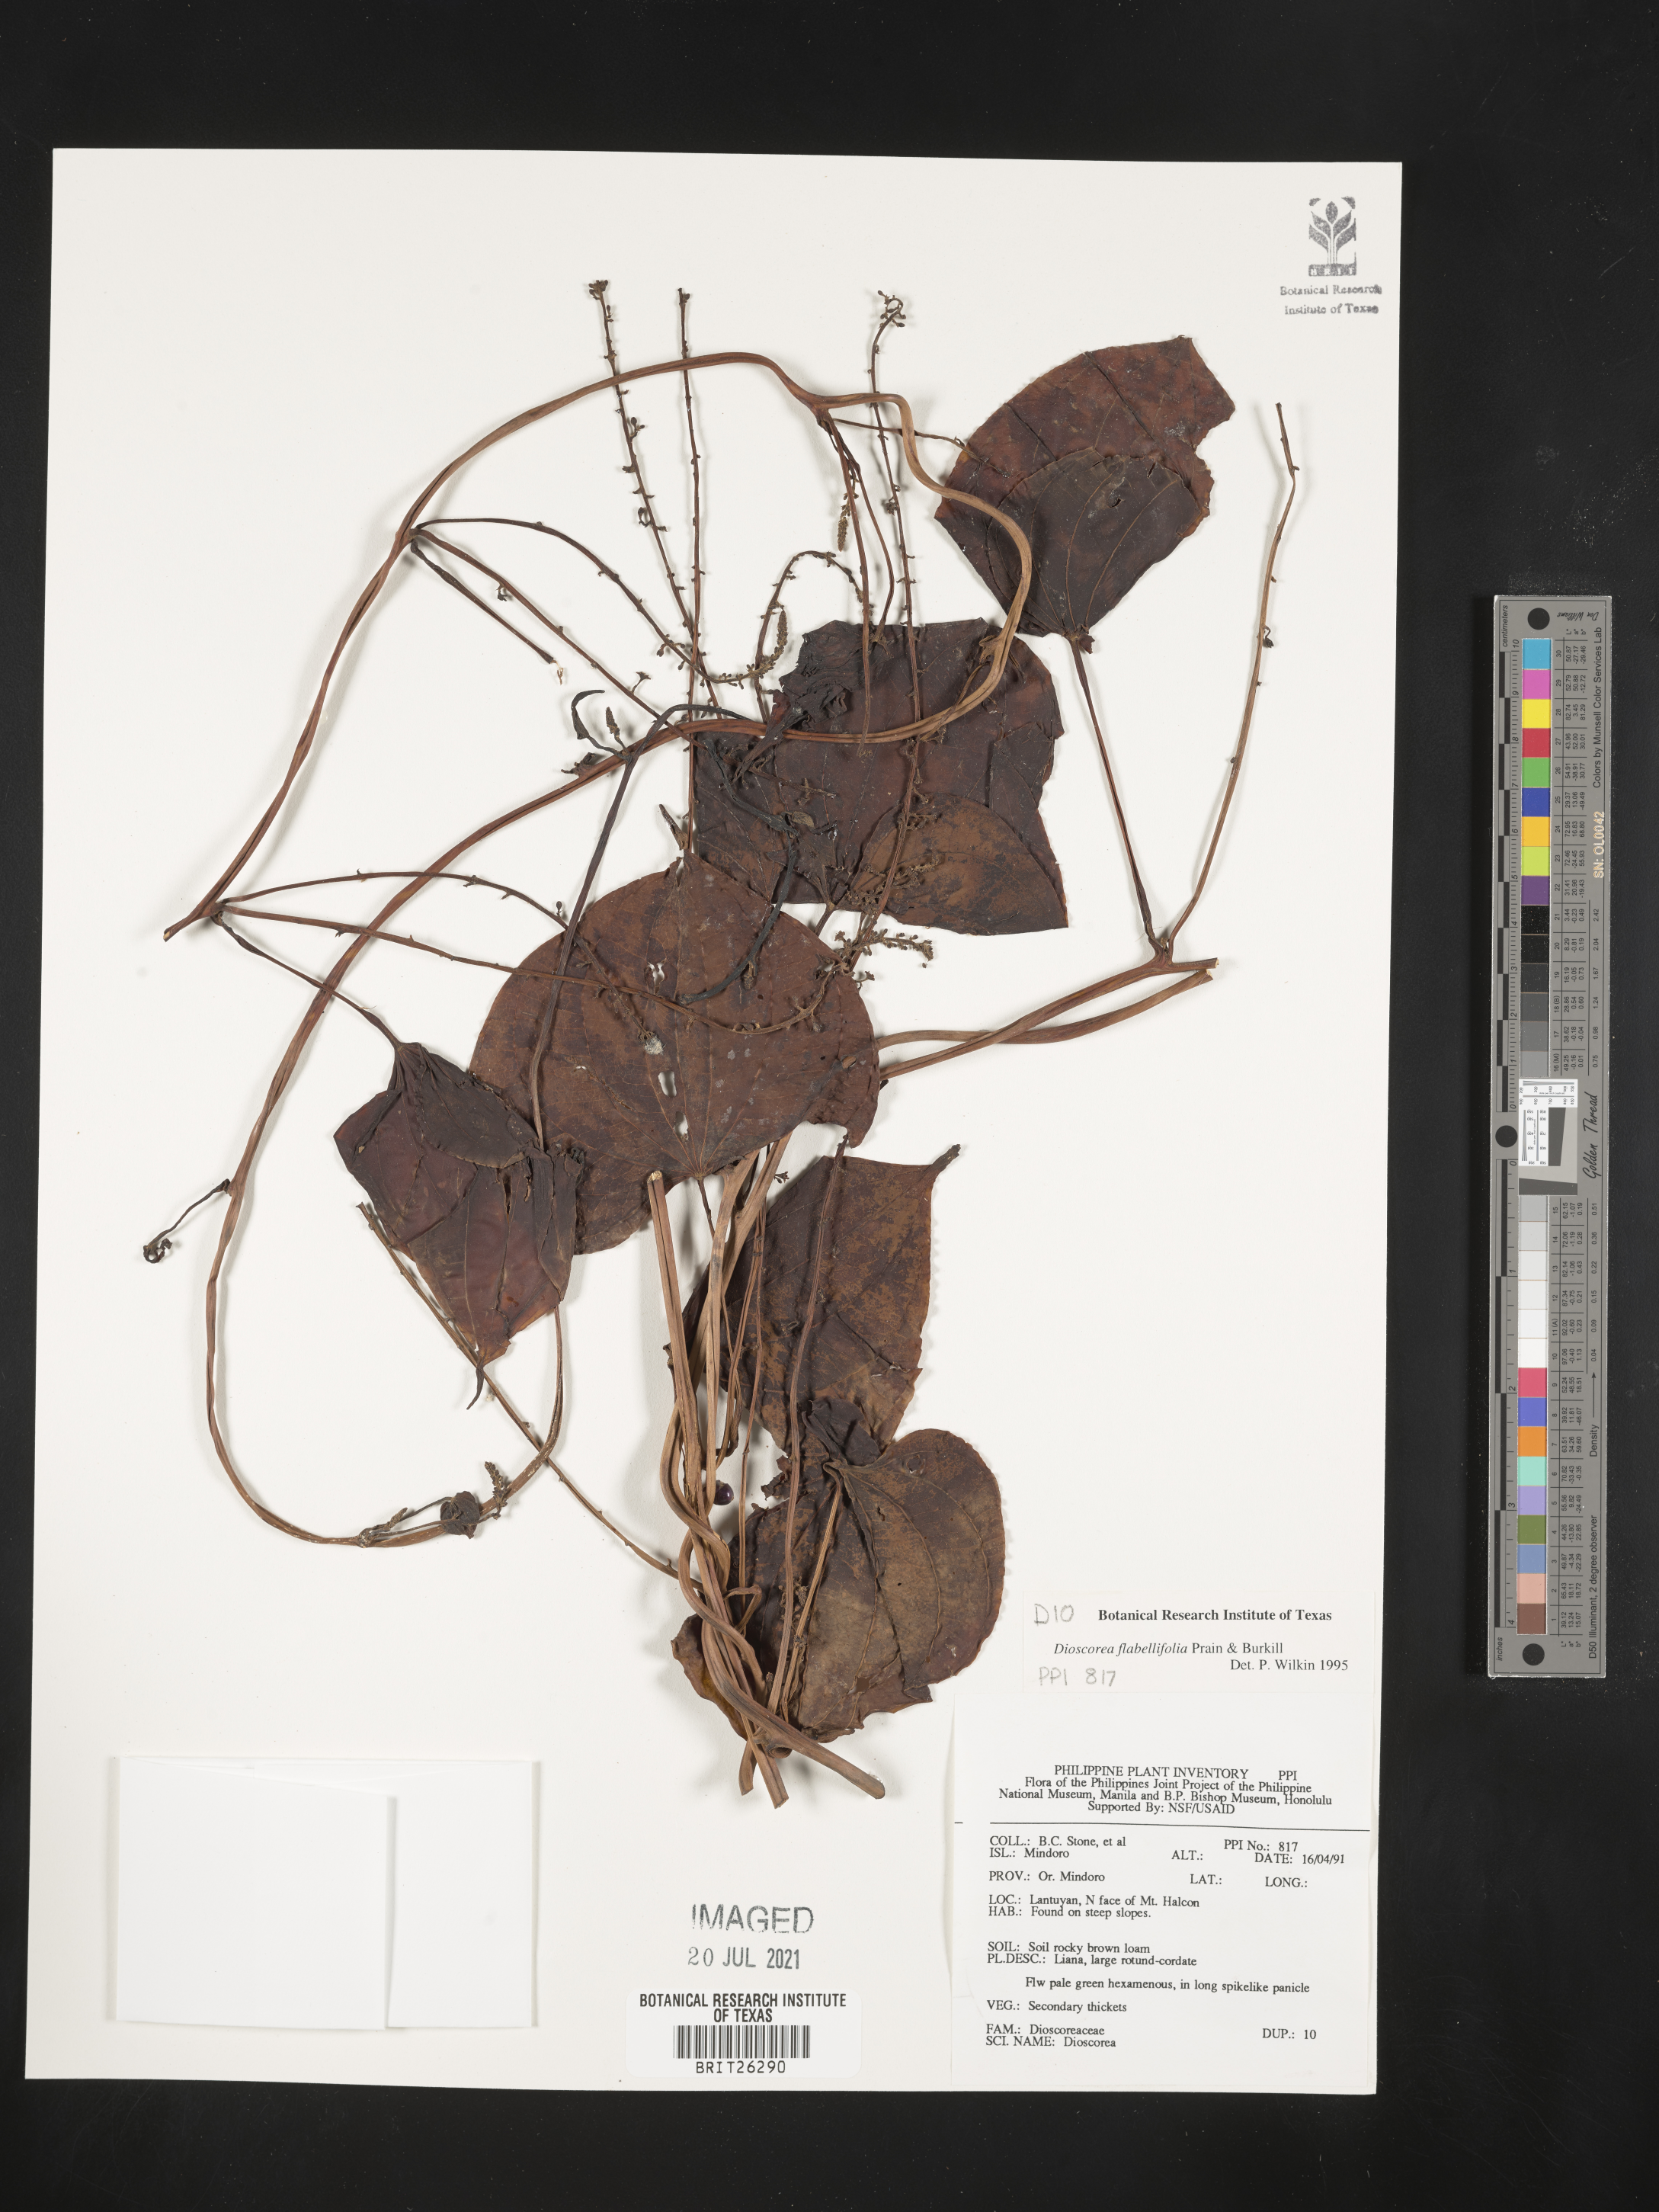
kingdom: Plantae
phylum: Tracheophyta
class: Liliopsida
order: Dioscoreales
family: Dioscoreaceae
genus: Dioscorea
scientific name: Dioscorea flabellifolia
